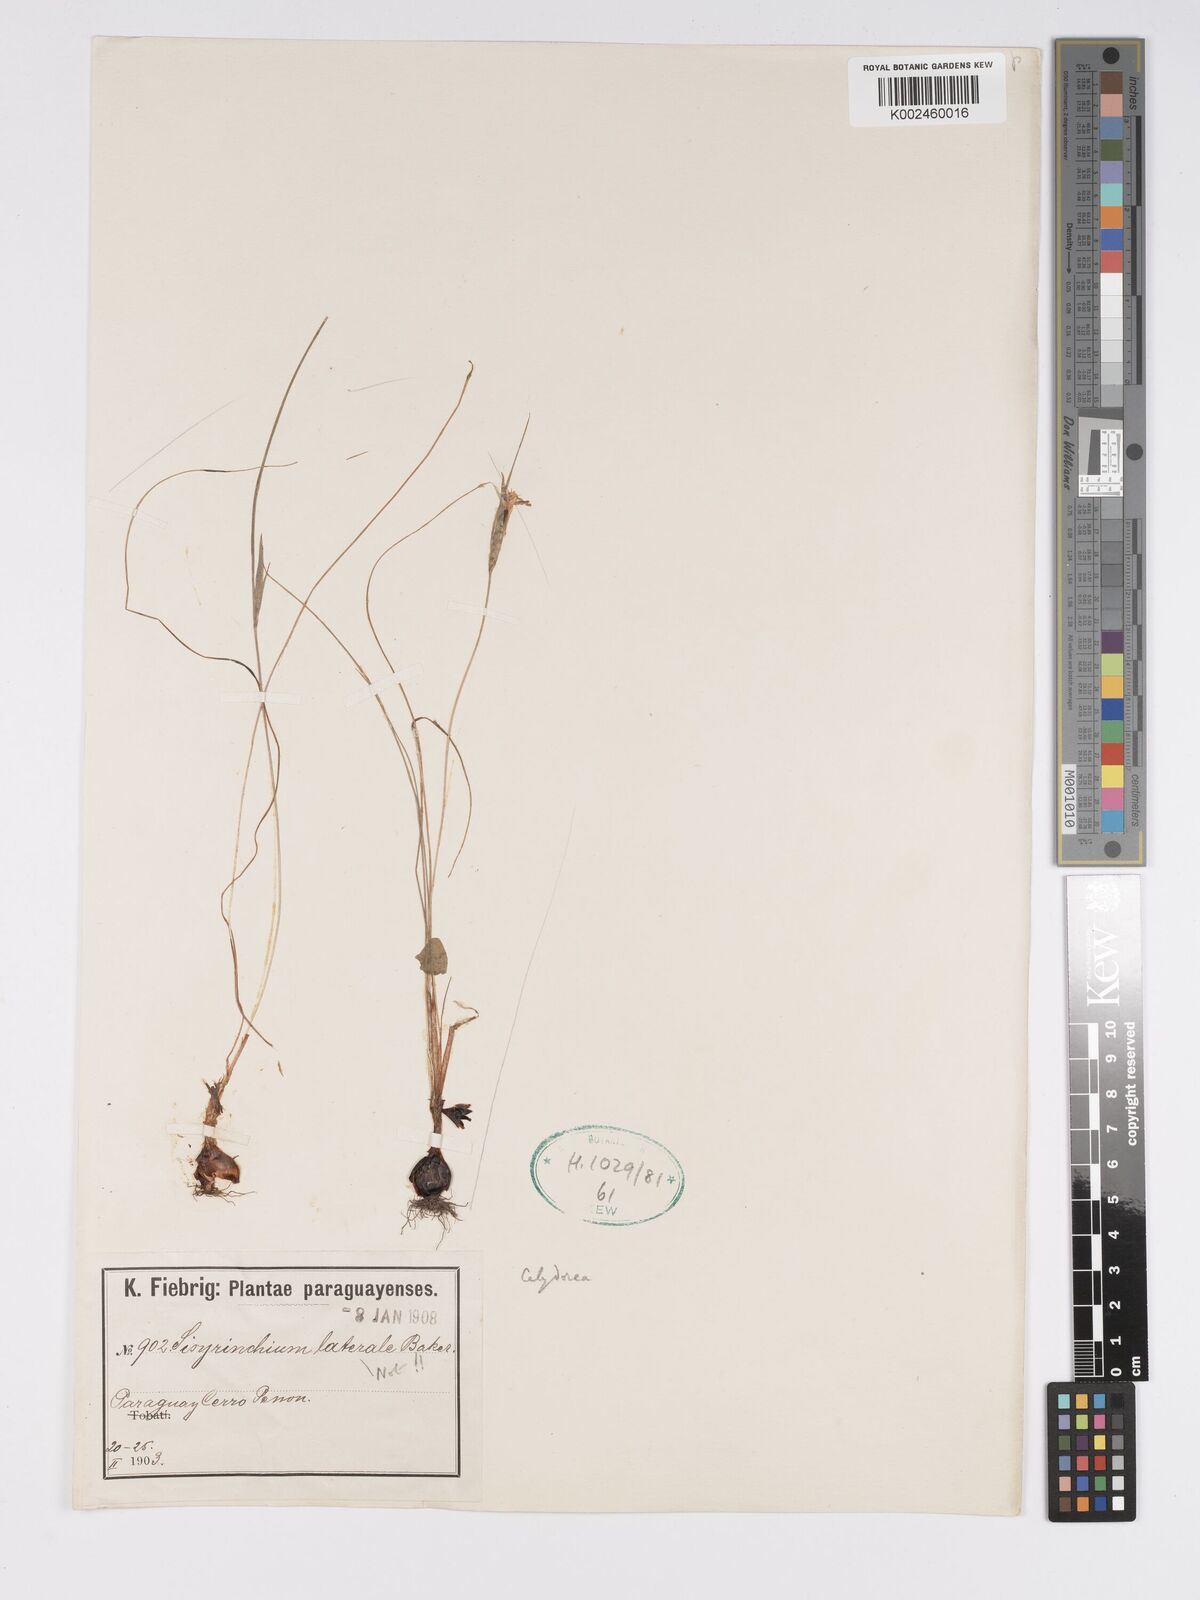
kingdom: Plantae
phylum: Tracheophyta
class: Liliopsida
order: Asparagales
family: Iridaceae
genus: Calydorea
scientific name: Calydorea
